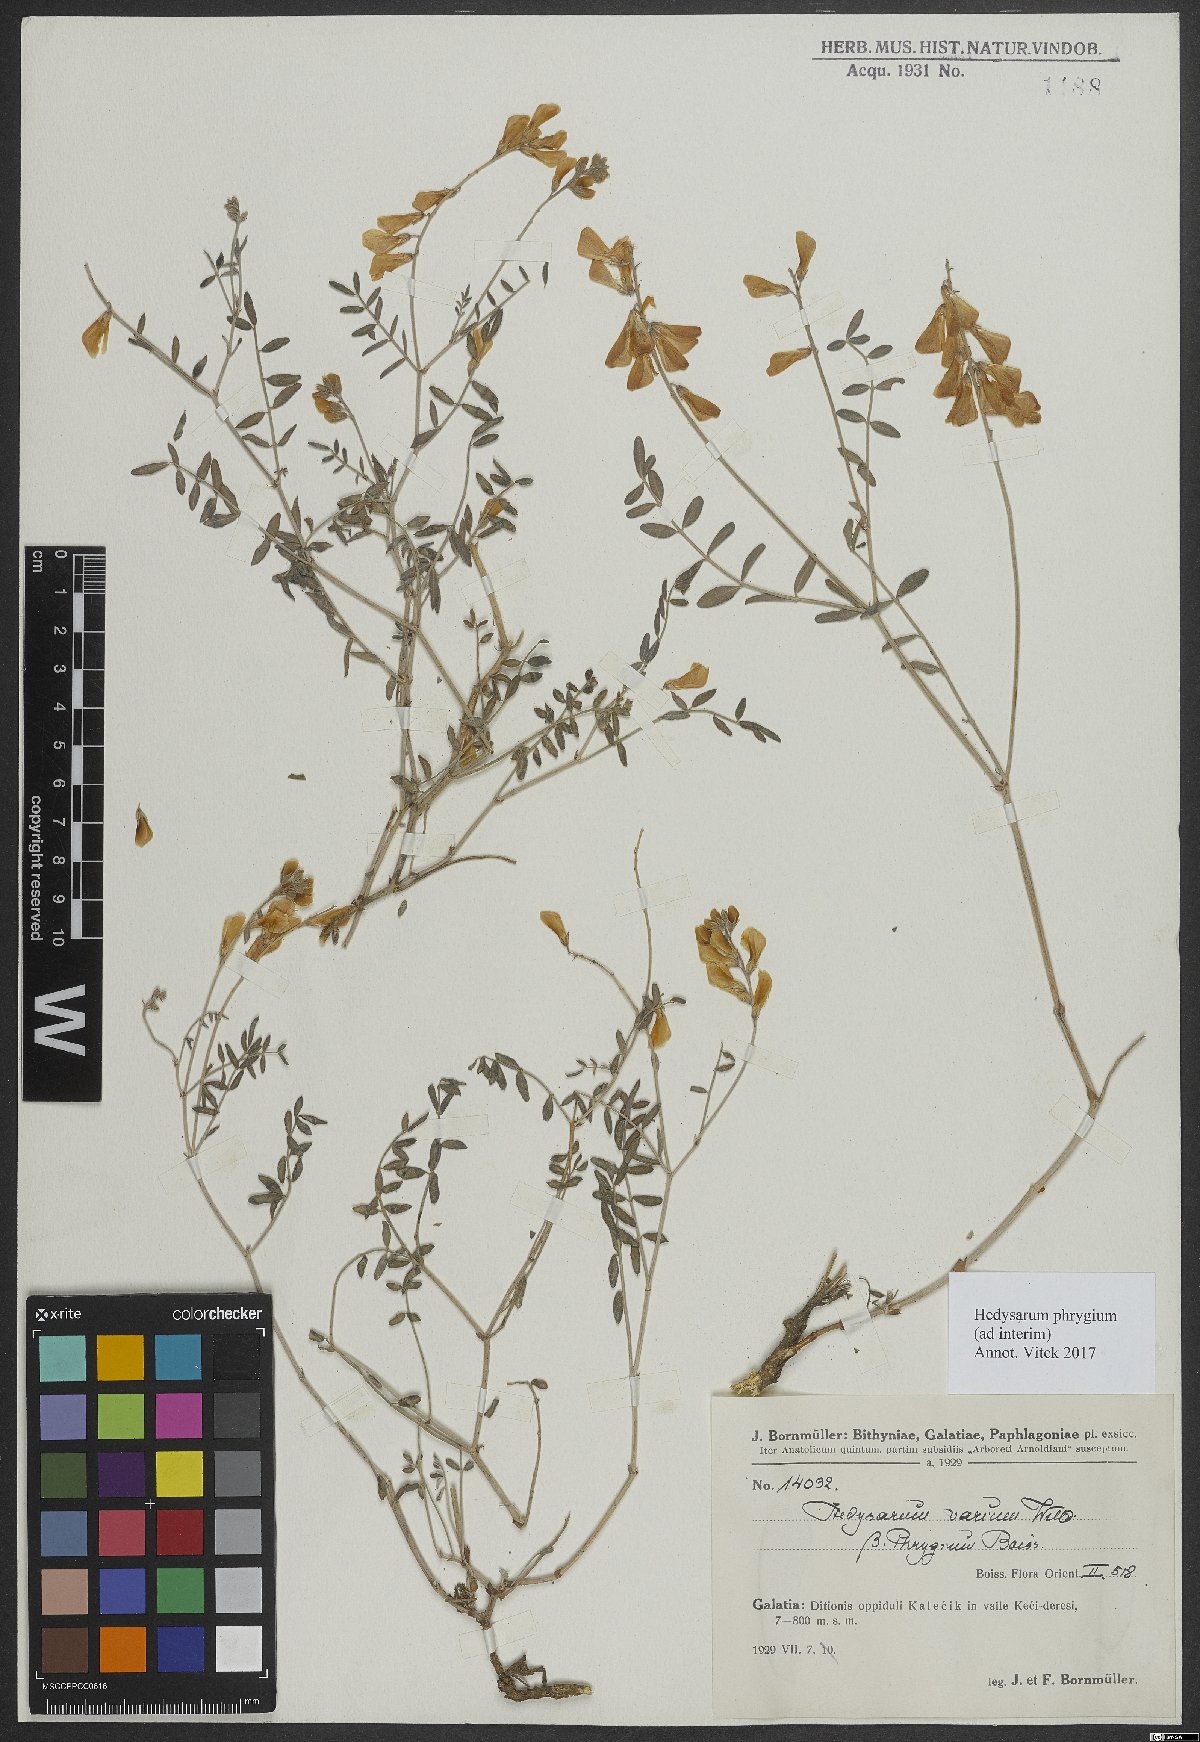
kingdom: Plantae
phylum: Tracheophyta
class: Magnoliopsida
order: Fabales
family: Fabaceae
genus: Hedysarum
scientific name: Hedysarum varium
